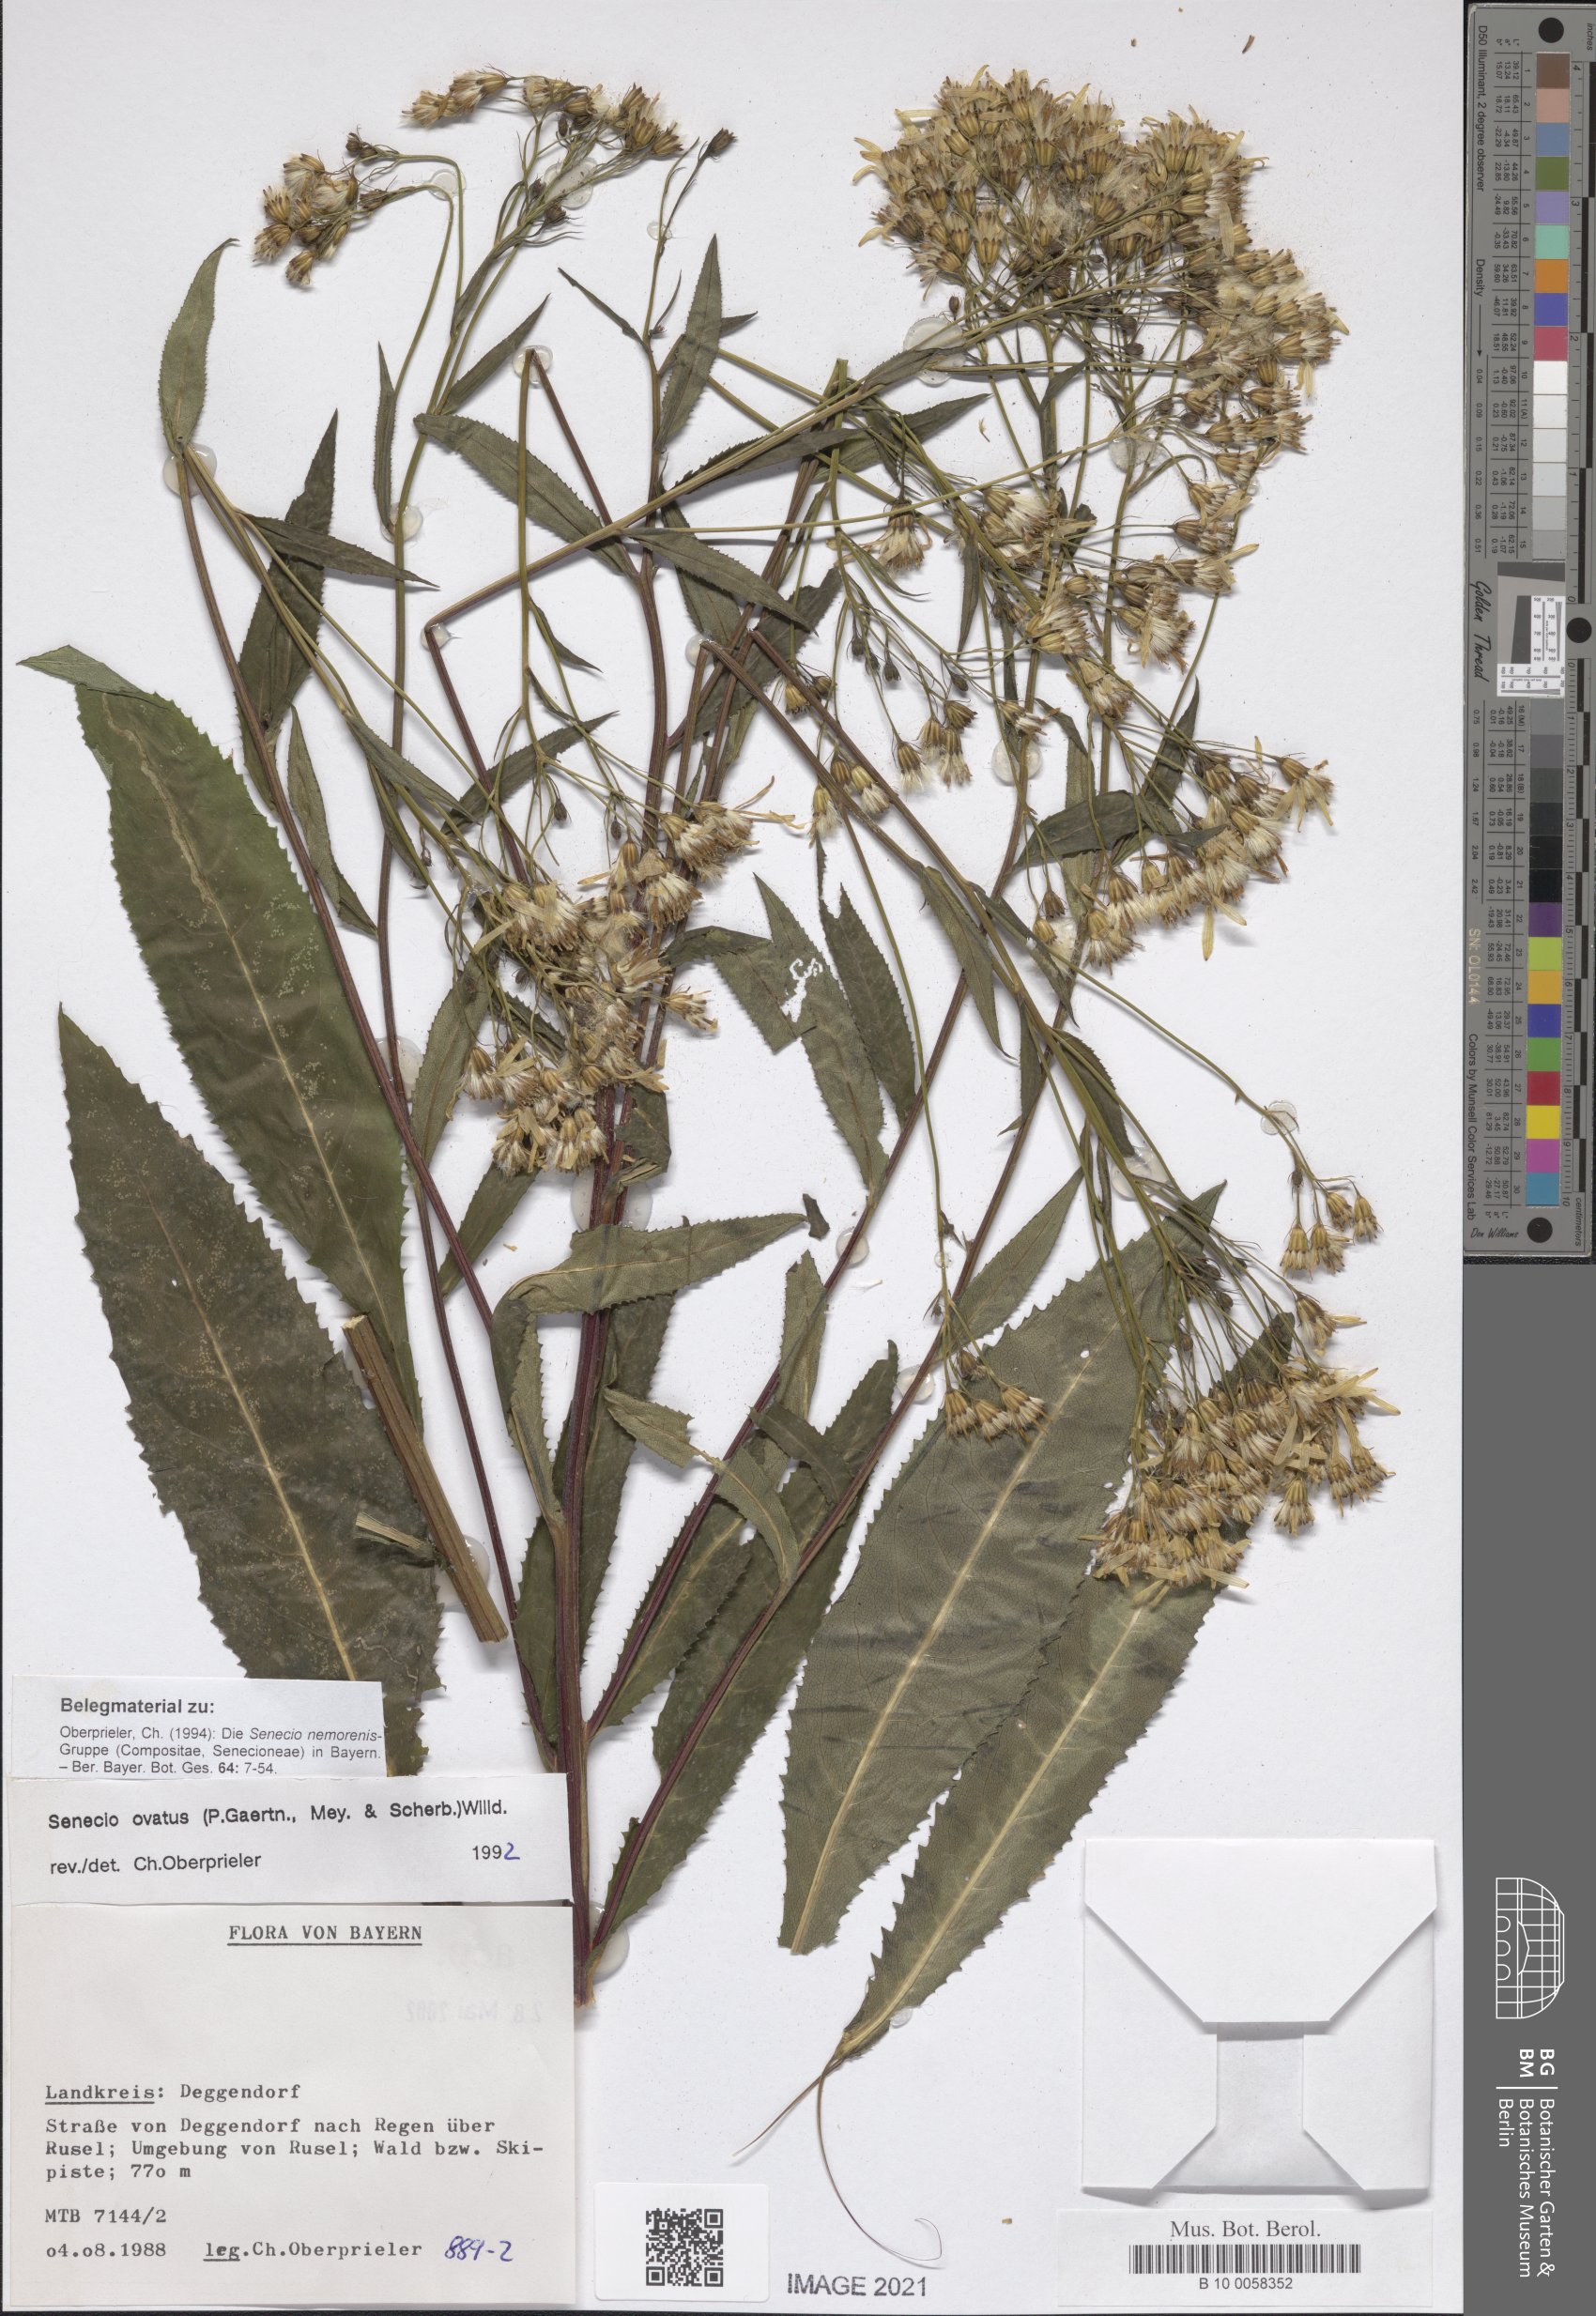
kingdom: Plantae
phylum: Tracheophyta
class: Magnoliopsida
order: Asterales
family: Asteraceae
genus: Senecio
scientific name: Senecio ovatus
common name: Wood ragwort
